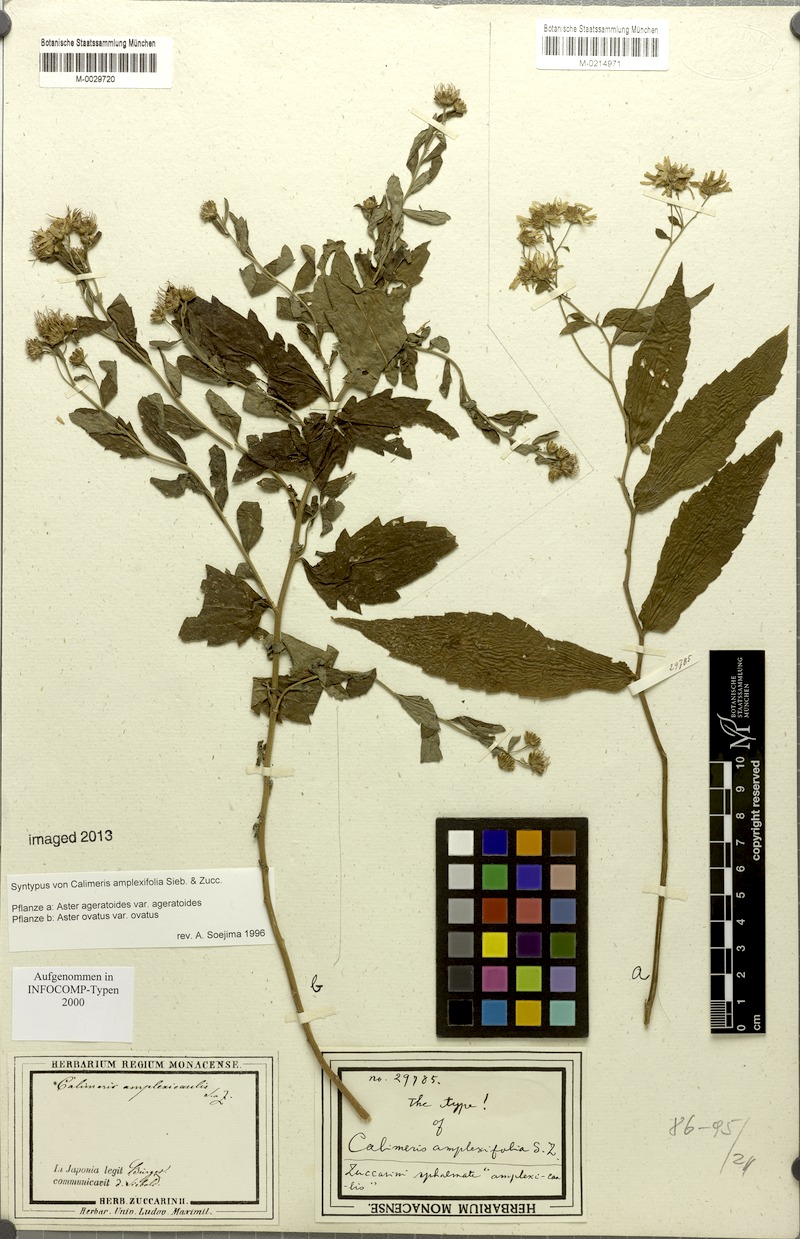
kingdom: Plantae
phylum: Tracheophyta
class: Magnoliopsida
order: Asterales
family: Asteraceae
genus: Aster
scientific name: Aster ageratoides
